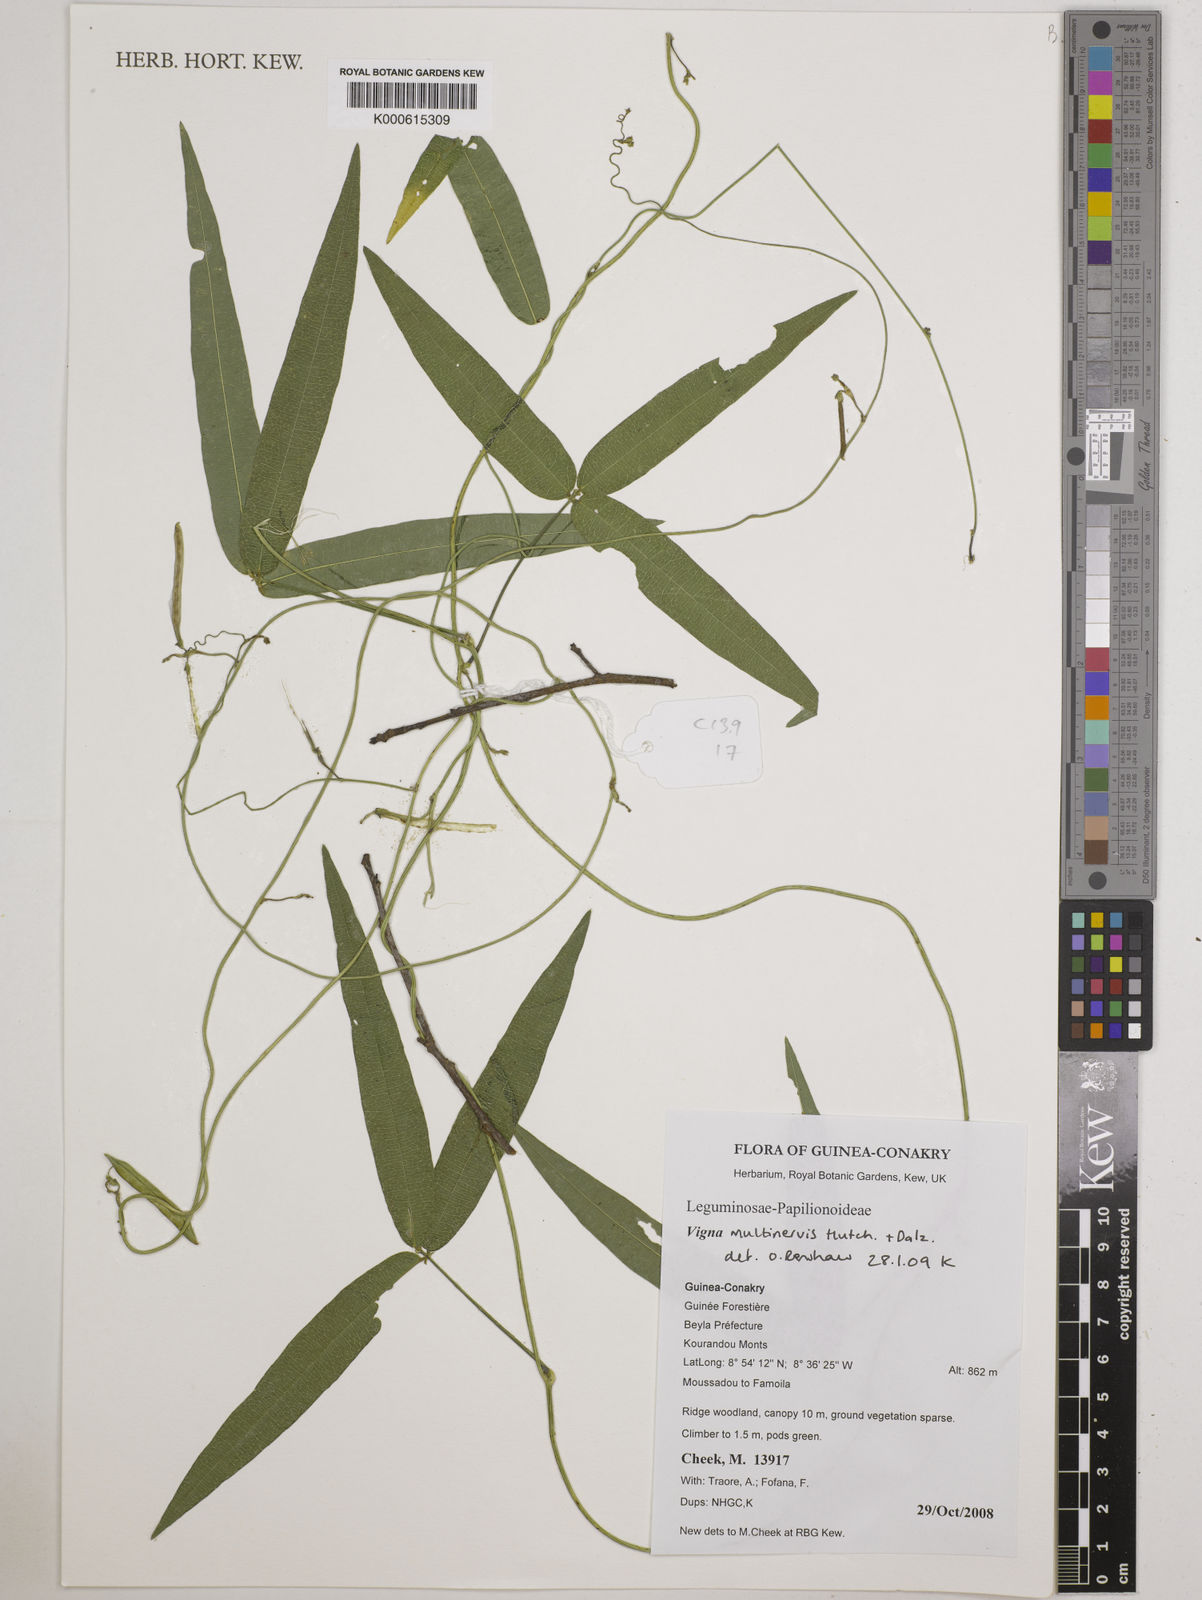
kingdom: Plantae
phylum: Tracheophyta
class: Magnoliopsida
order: Fabales
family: Fabaceae
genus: Vigna
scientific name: Vigna multinervis
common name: Fula-pulaar
